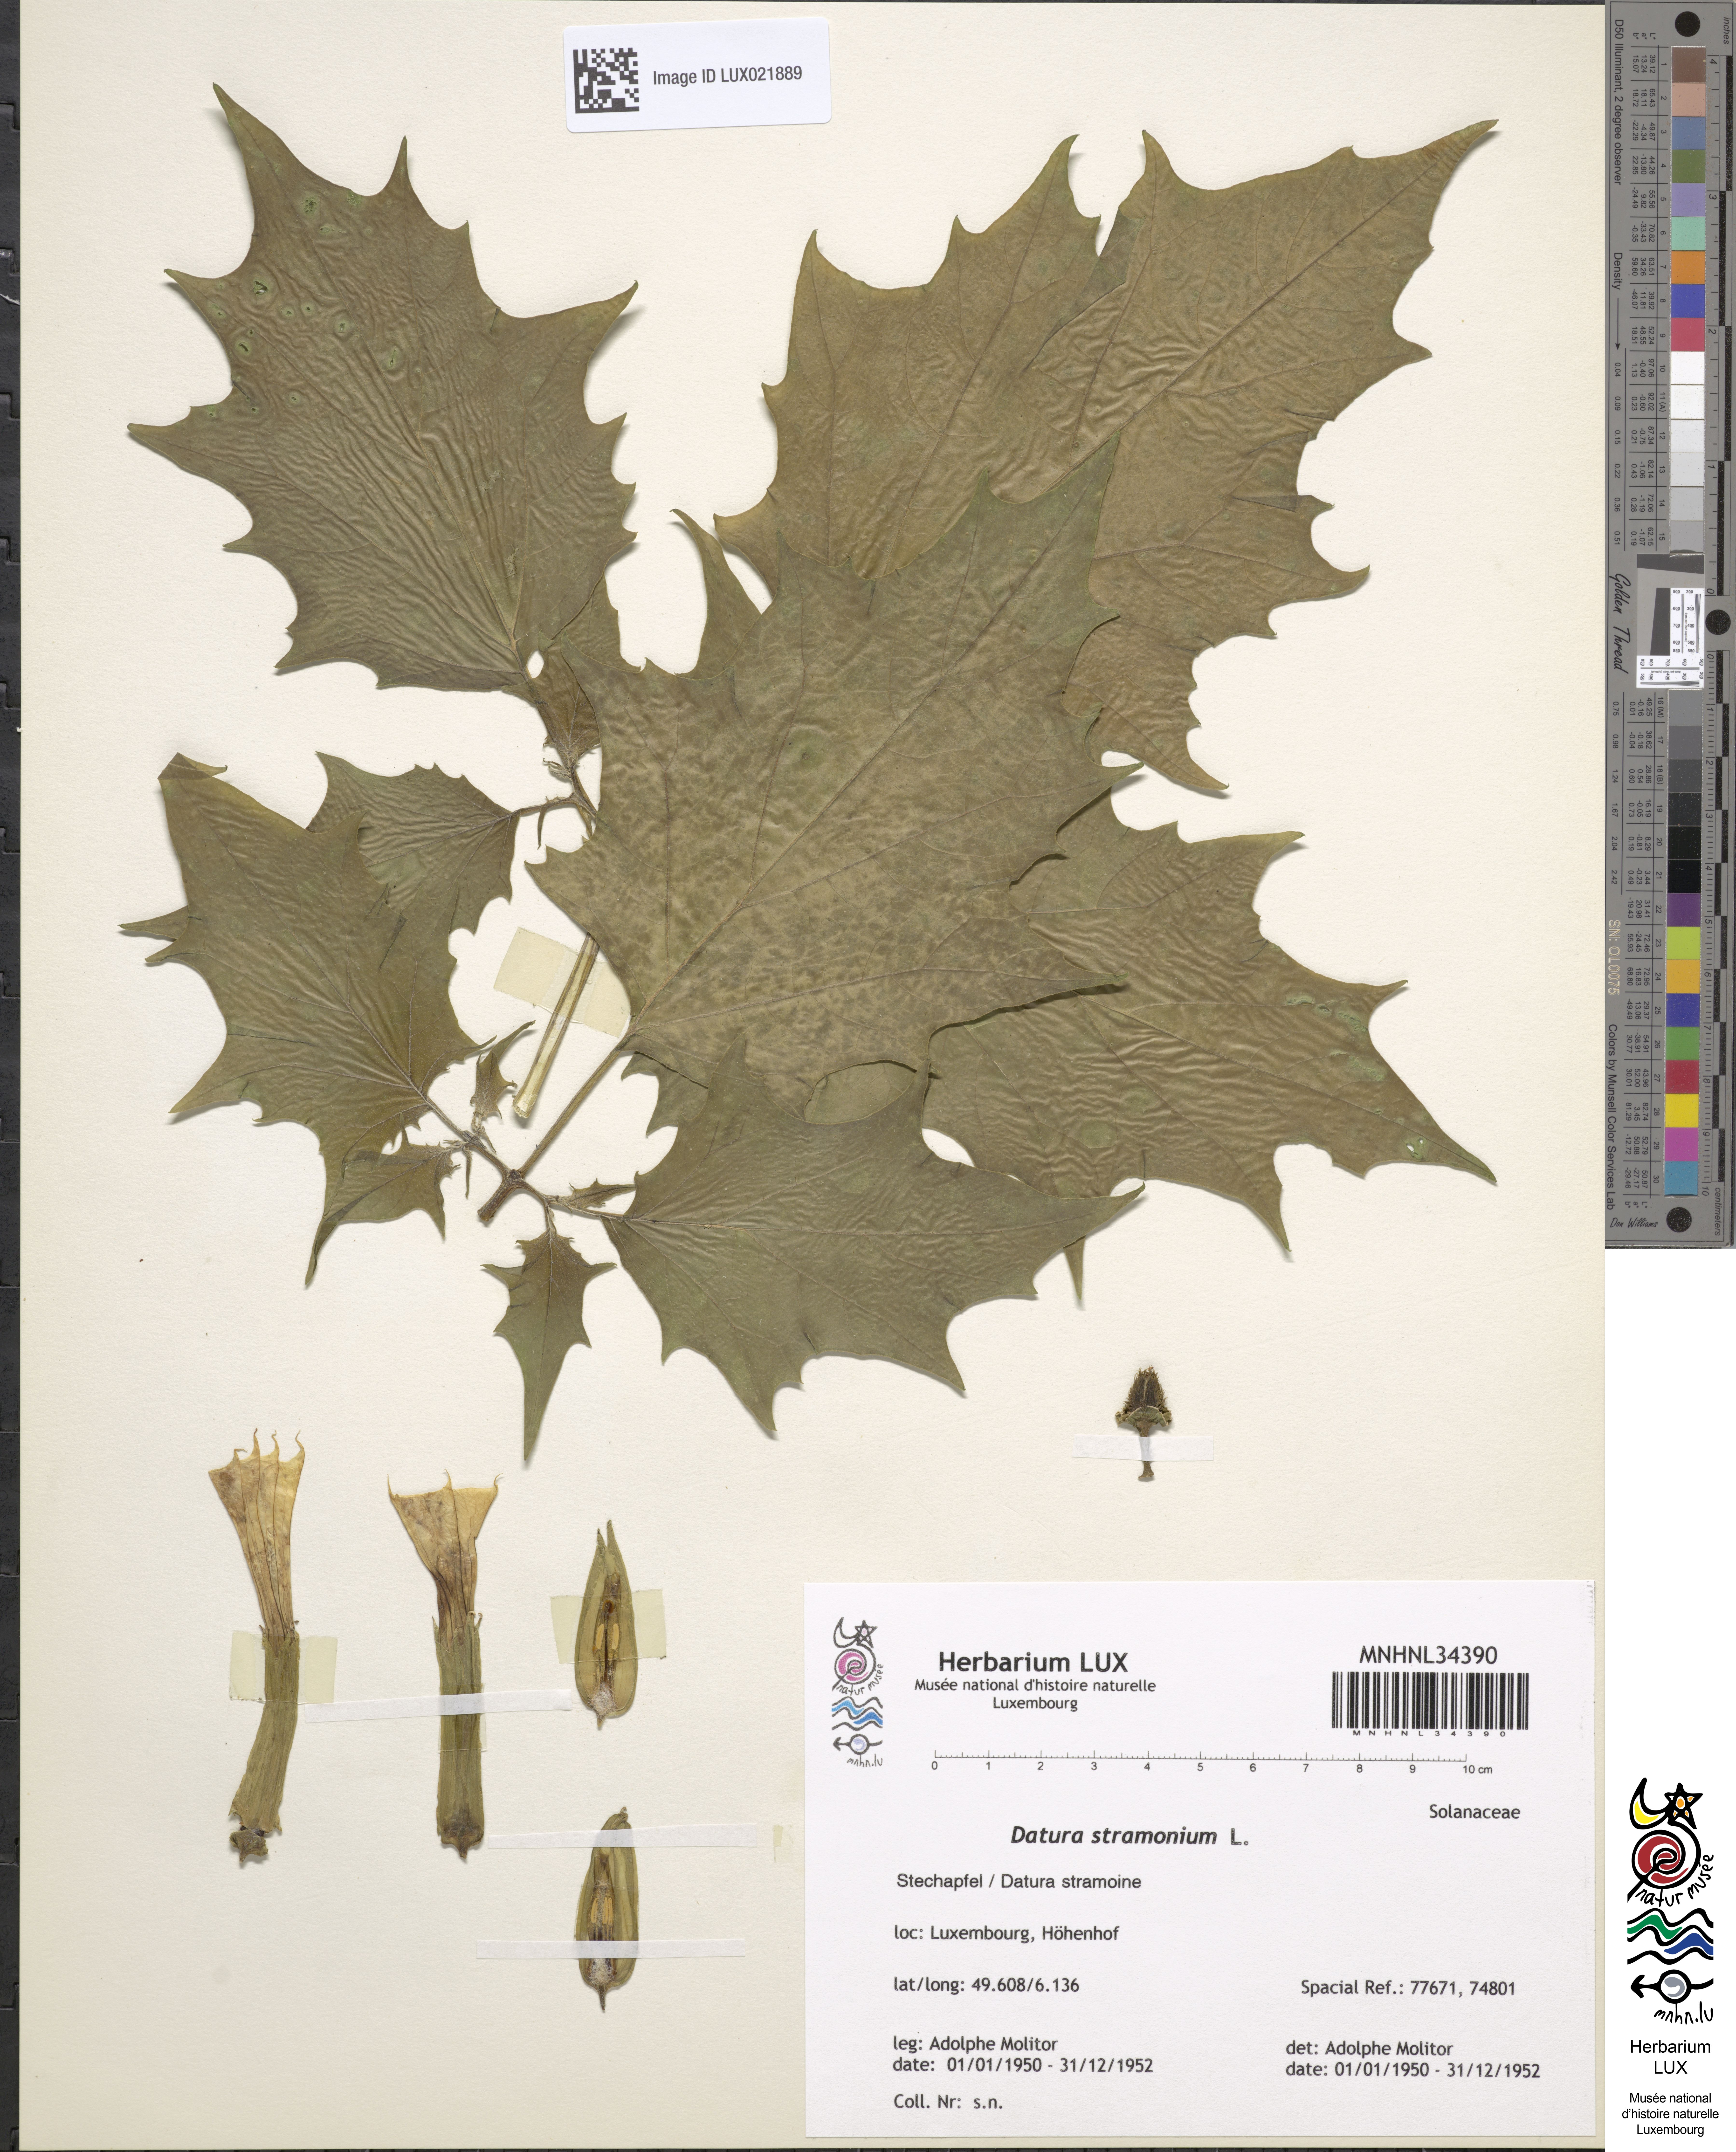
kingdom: Plantae
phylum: Tracheophyta
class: Magnoliopsida
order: Solanales
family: Solanaceae
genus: Datura
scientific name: Datura stramonium
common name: Thorn-apple
